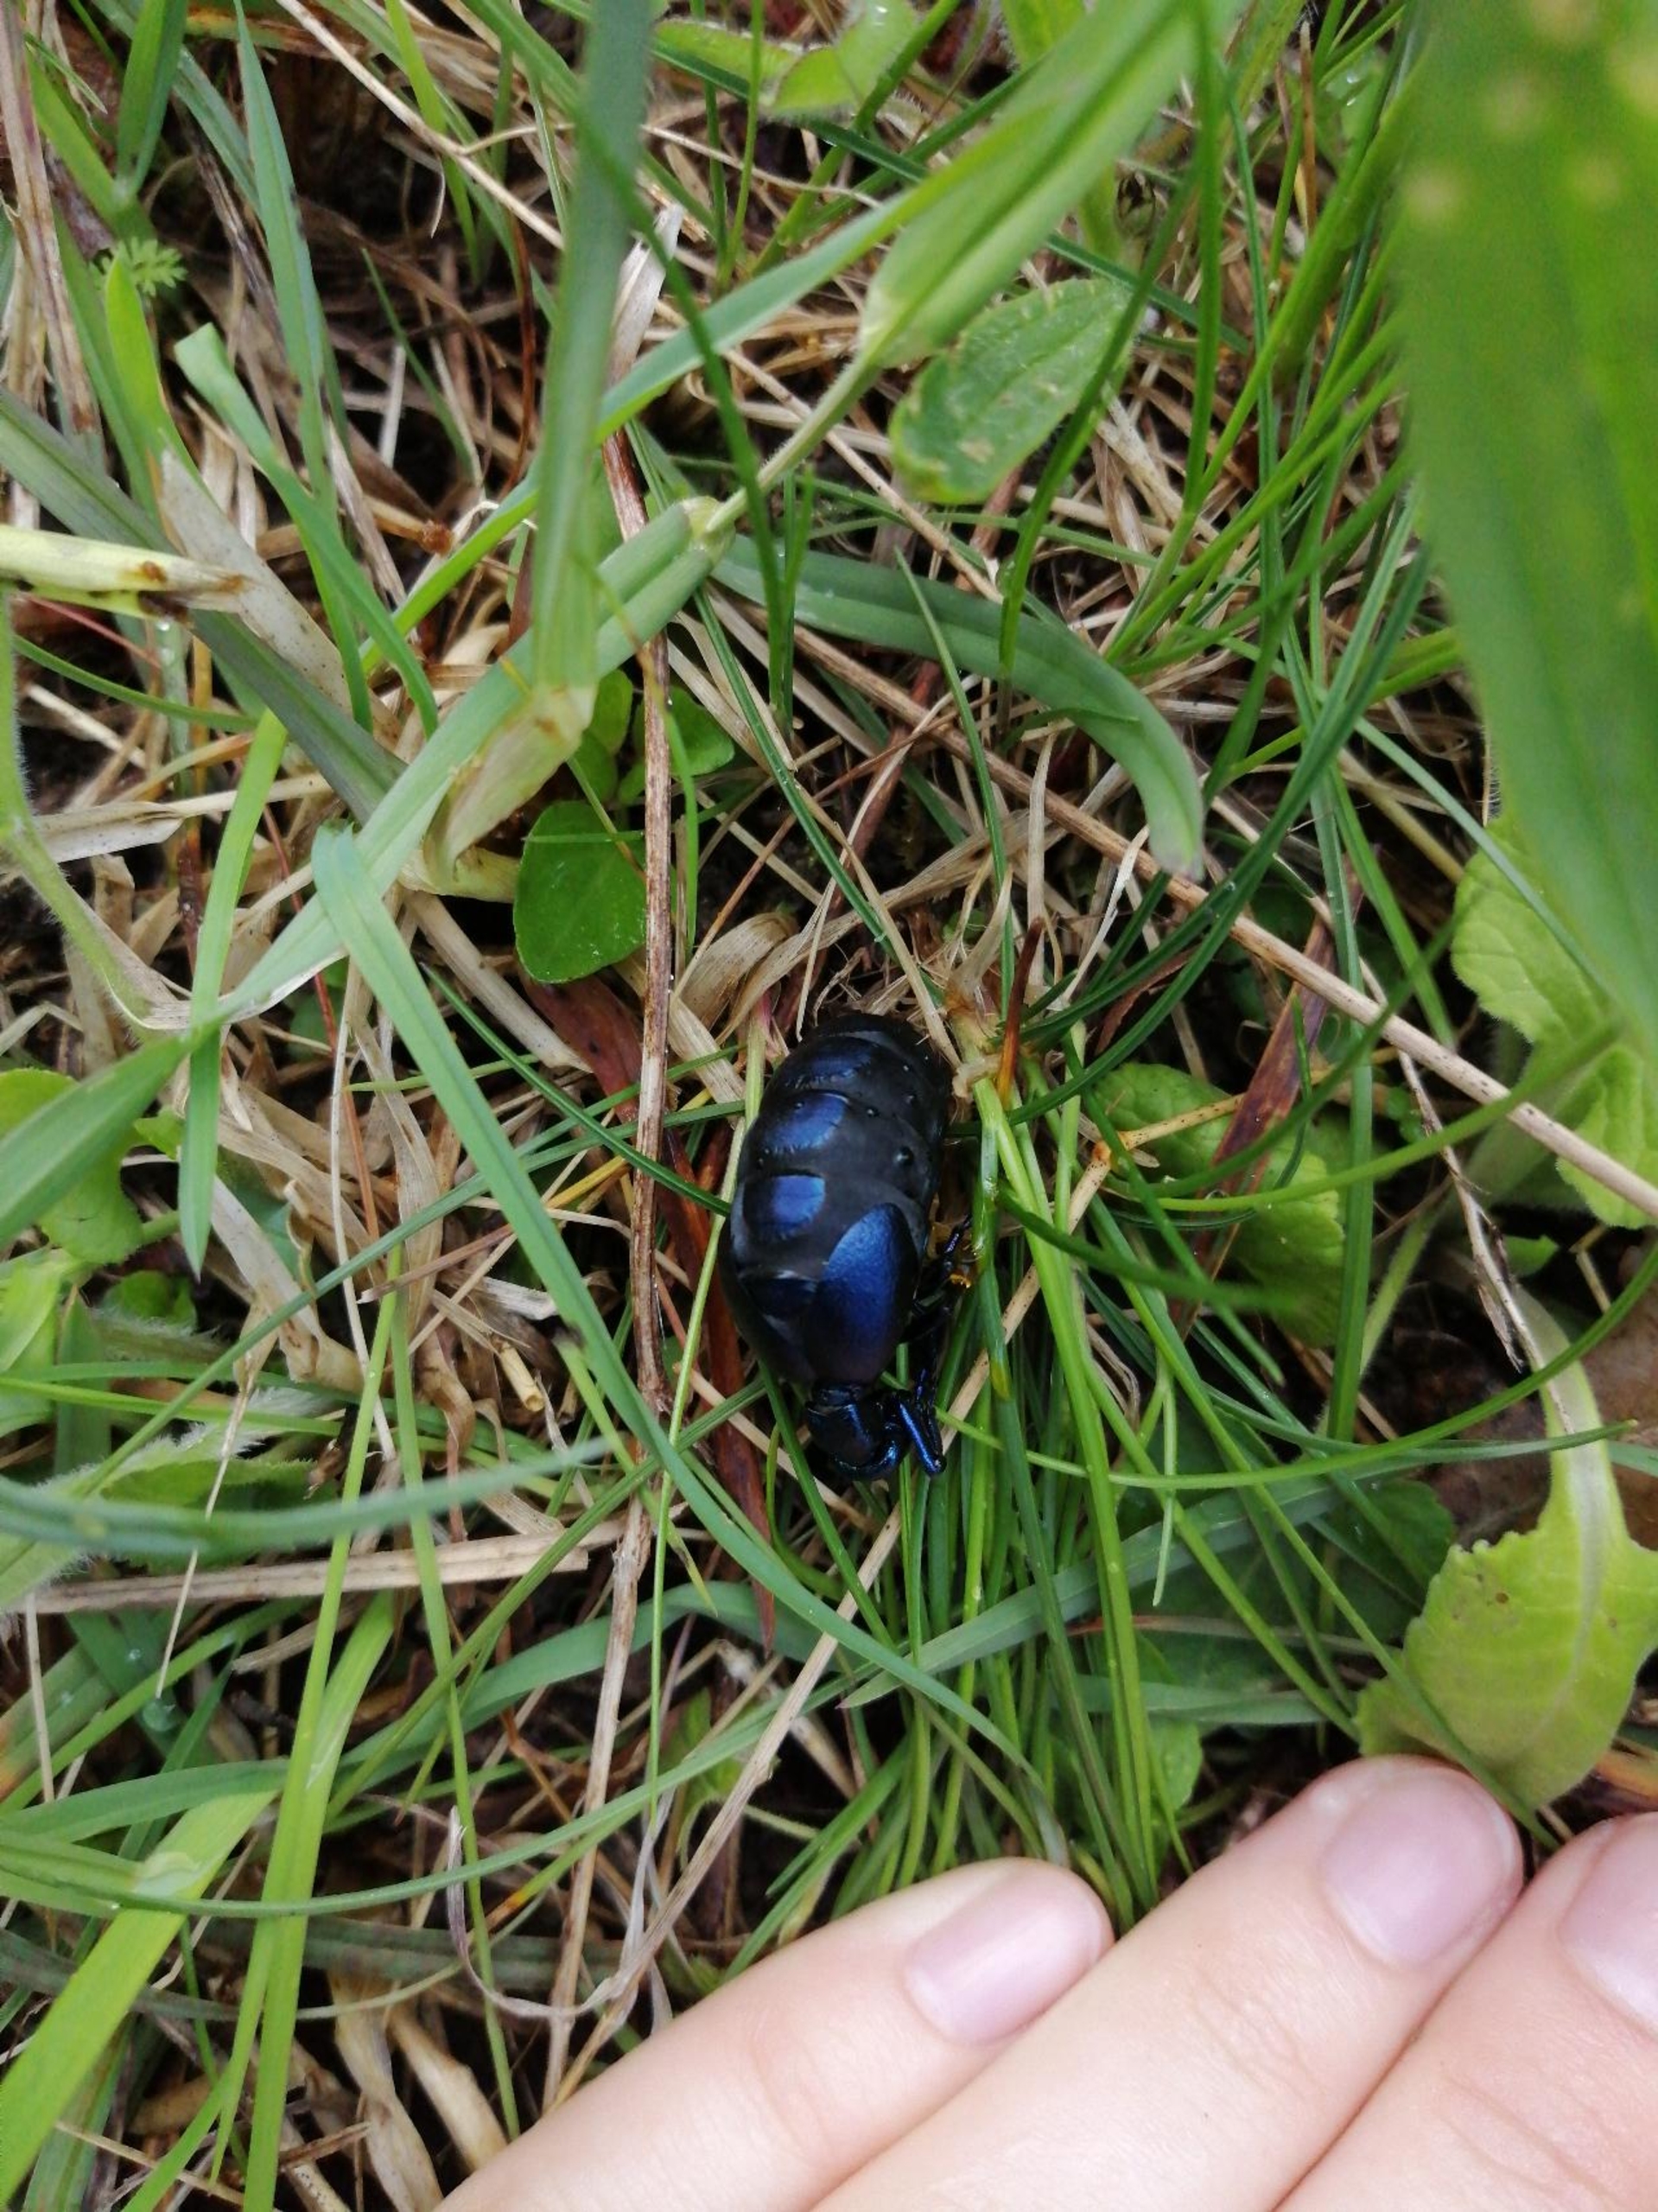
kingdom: Animalia
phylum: Arthropoda
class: Insecta
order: Coleoptera
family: Meloidae
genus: Meloe
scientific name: Meloe violaceus
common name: Blå oliebille
